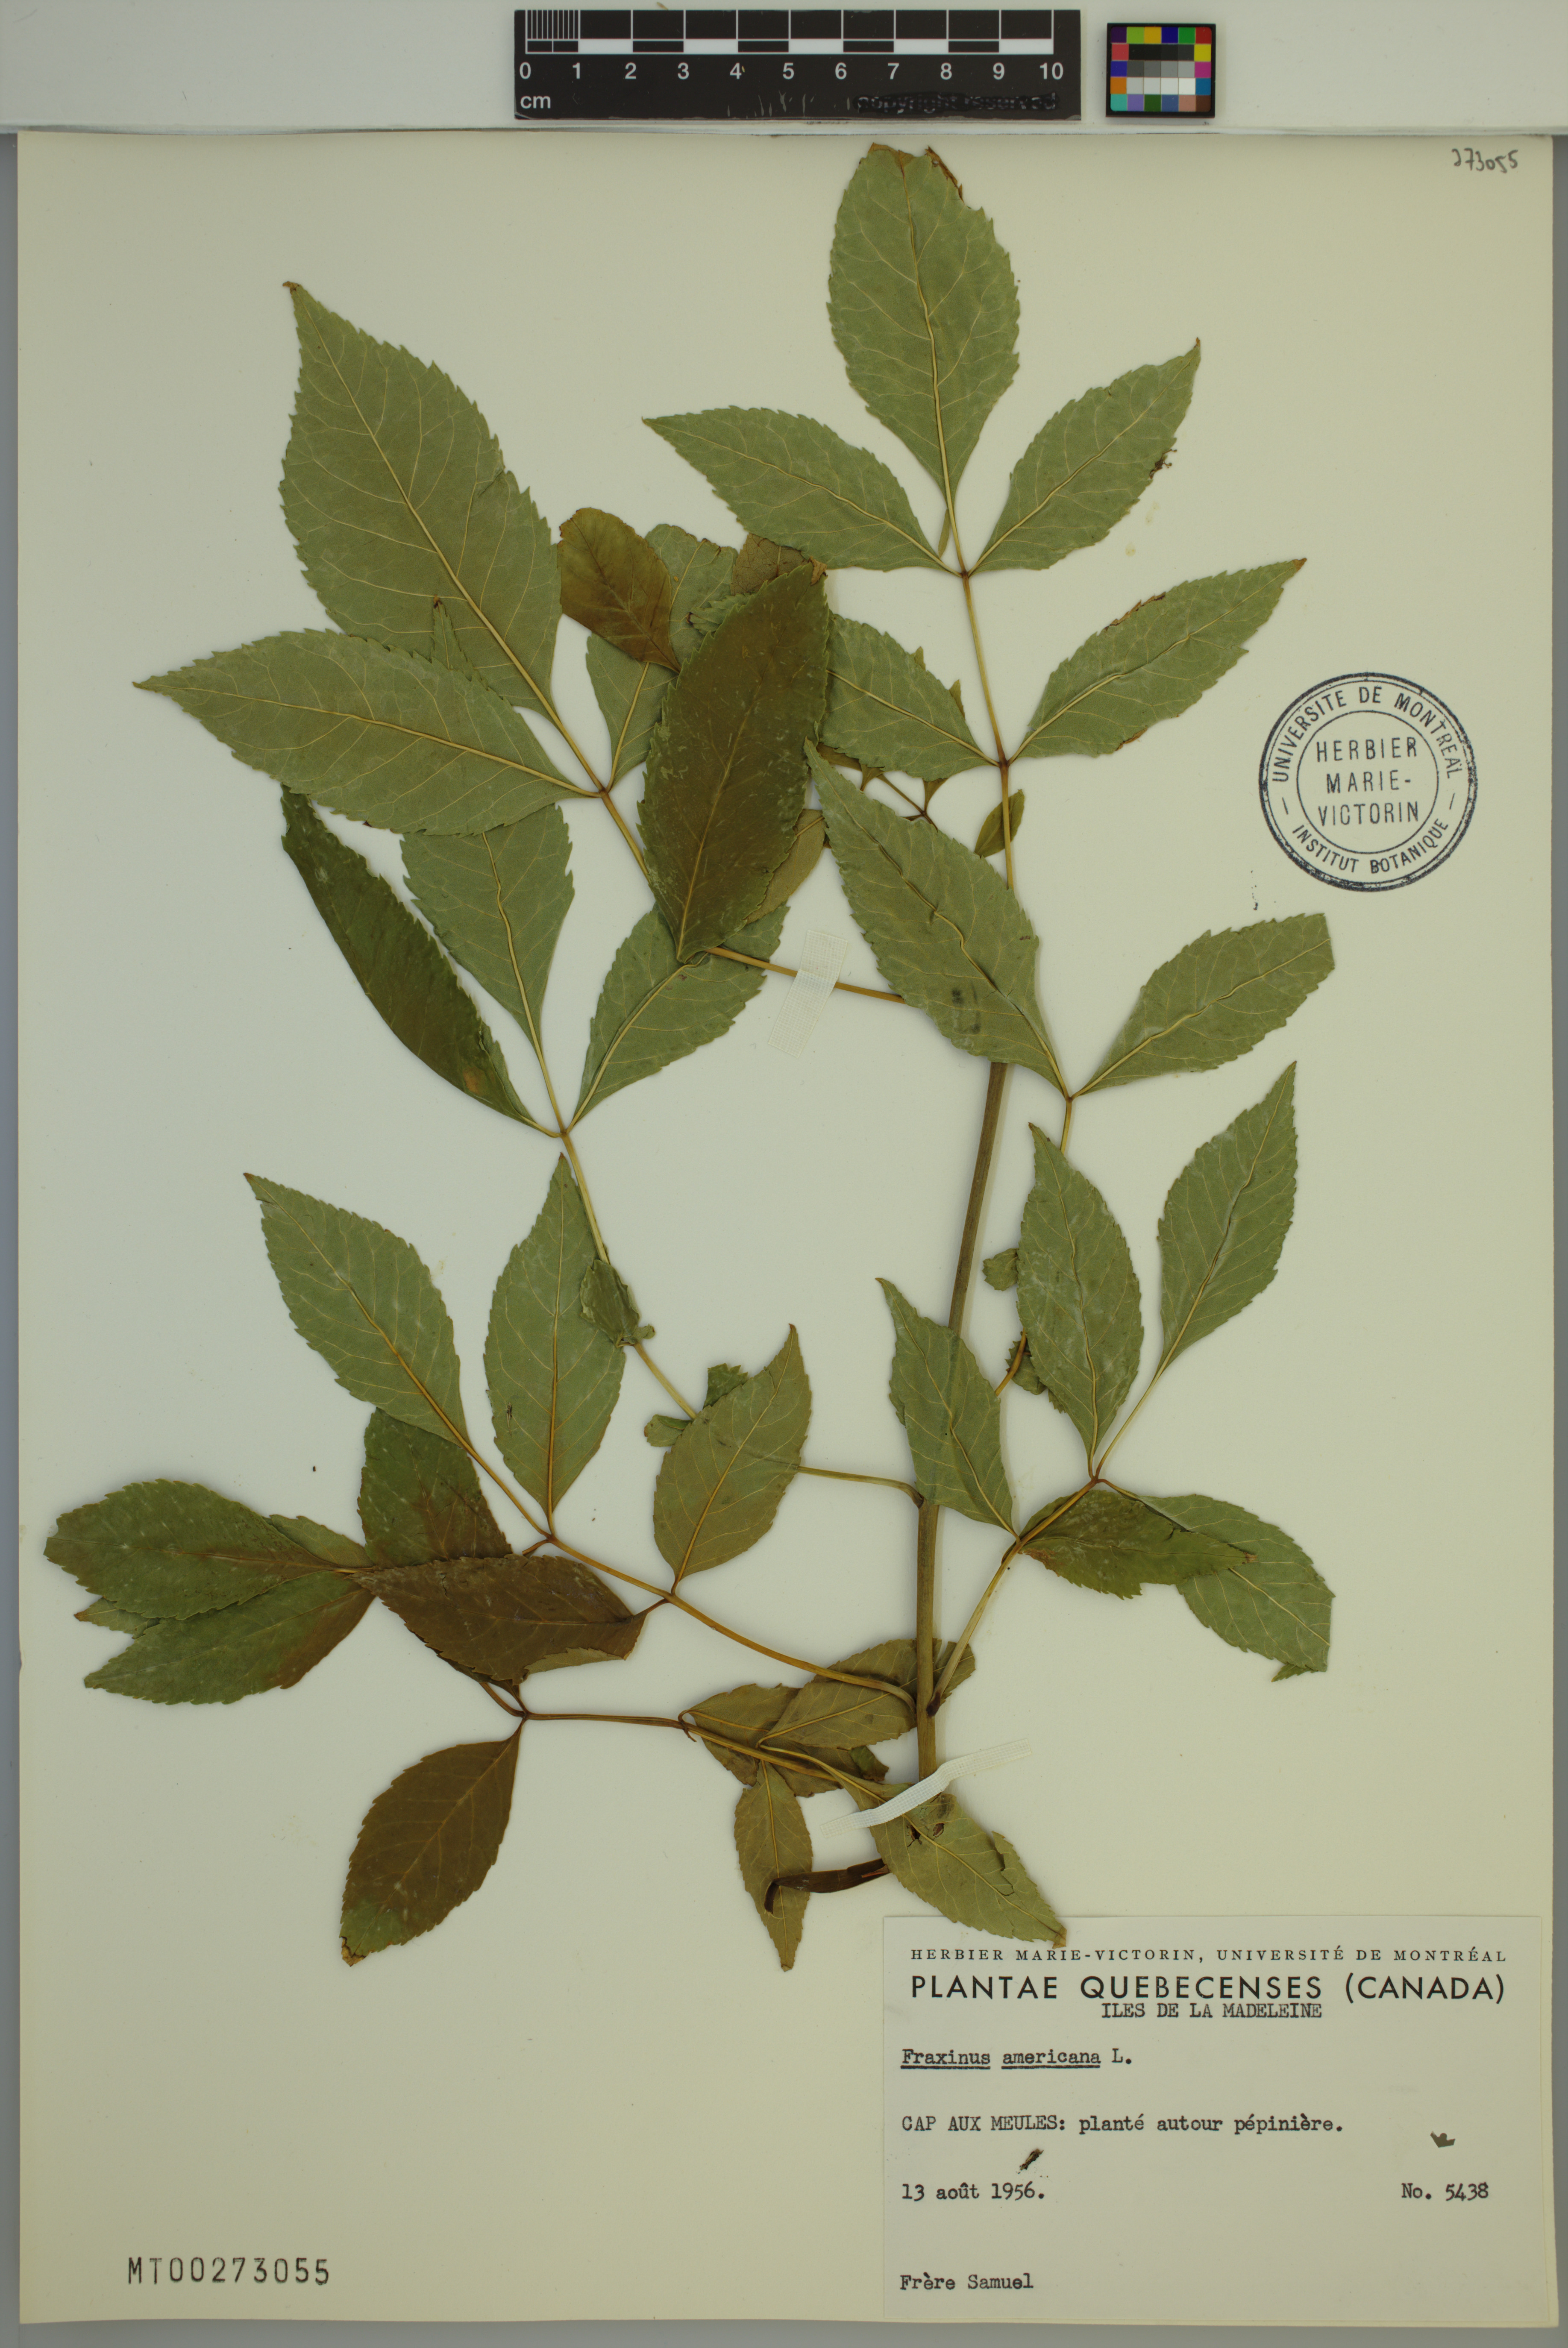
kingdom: Plantae
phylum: Tracheophyta
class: Magnoliopsida
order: Lamiales
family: Oleaceae
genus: Fraxinus
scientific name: Fraxinus americana
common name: White ash
